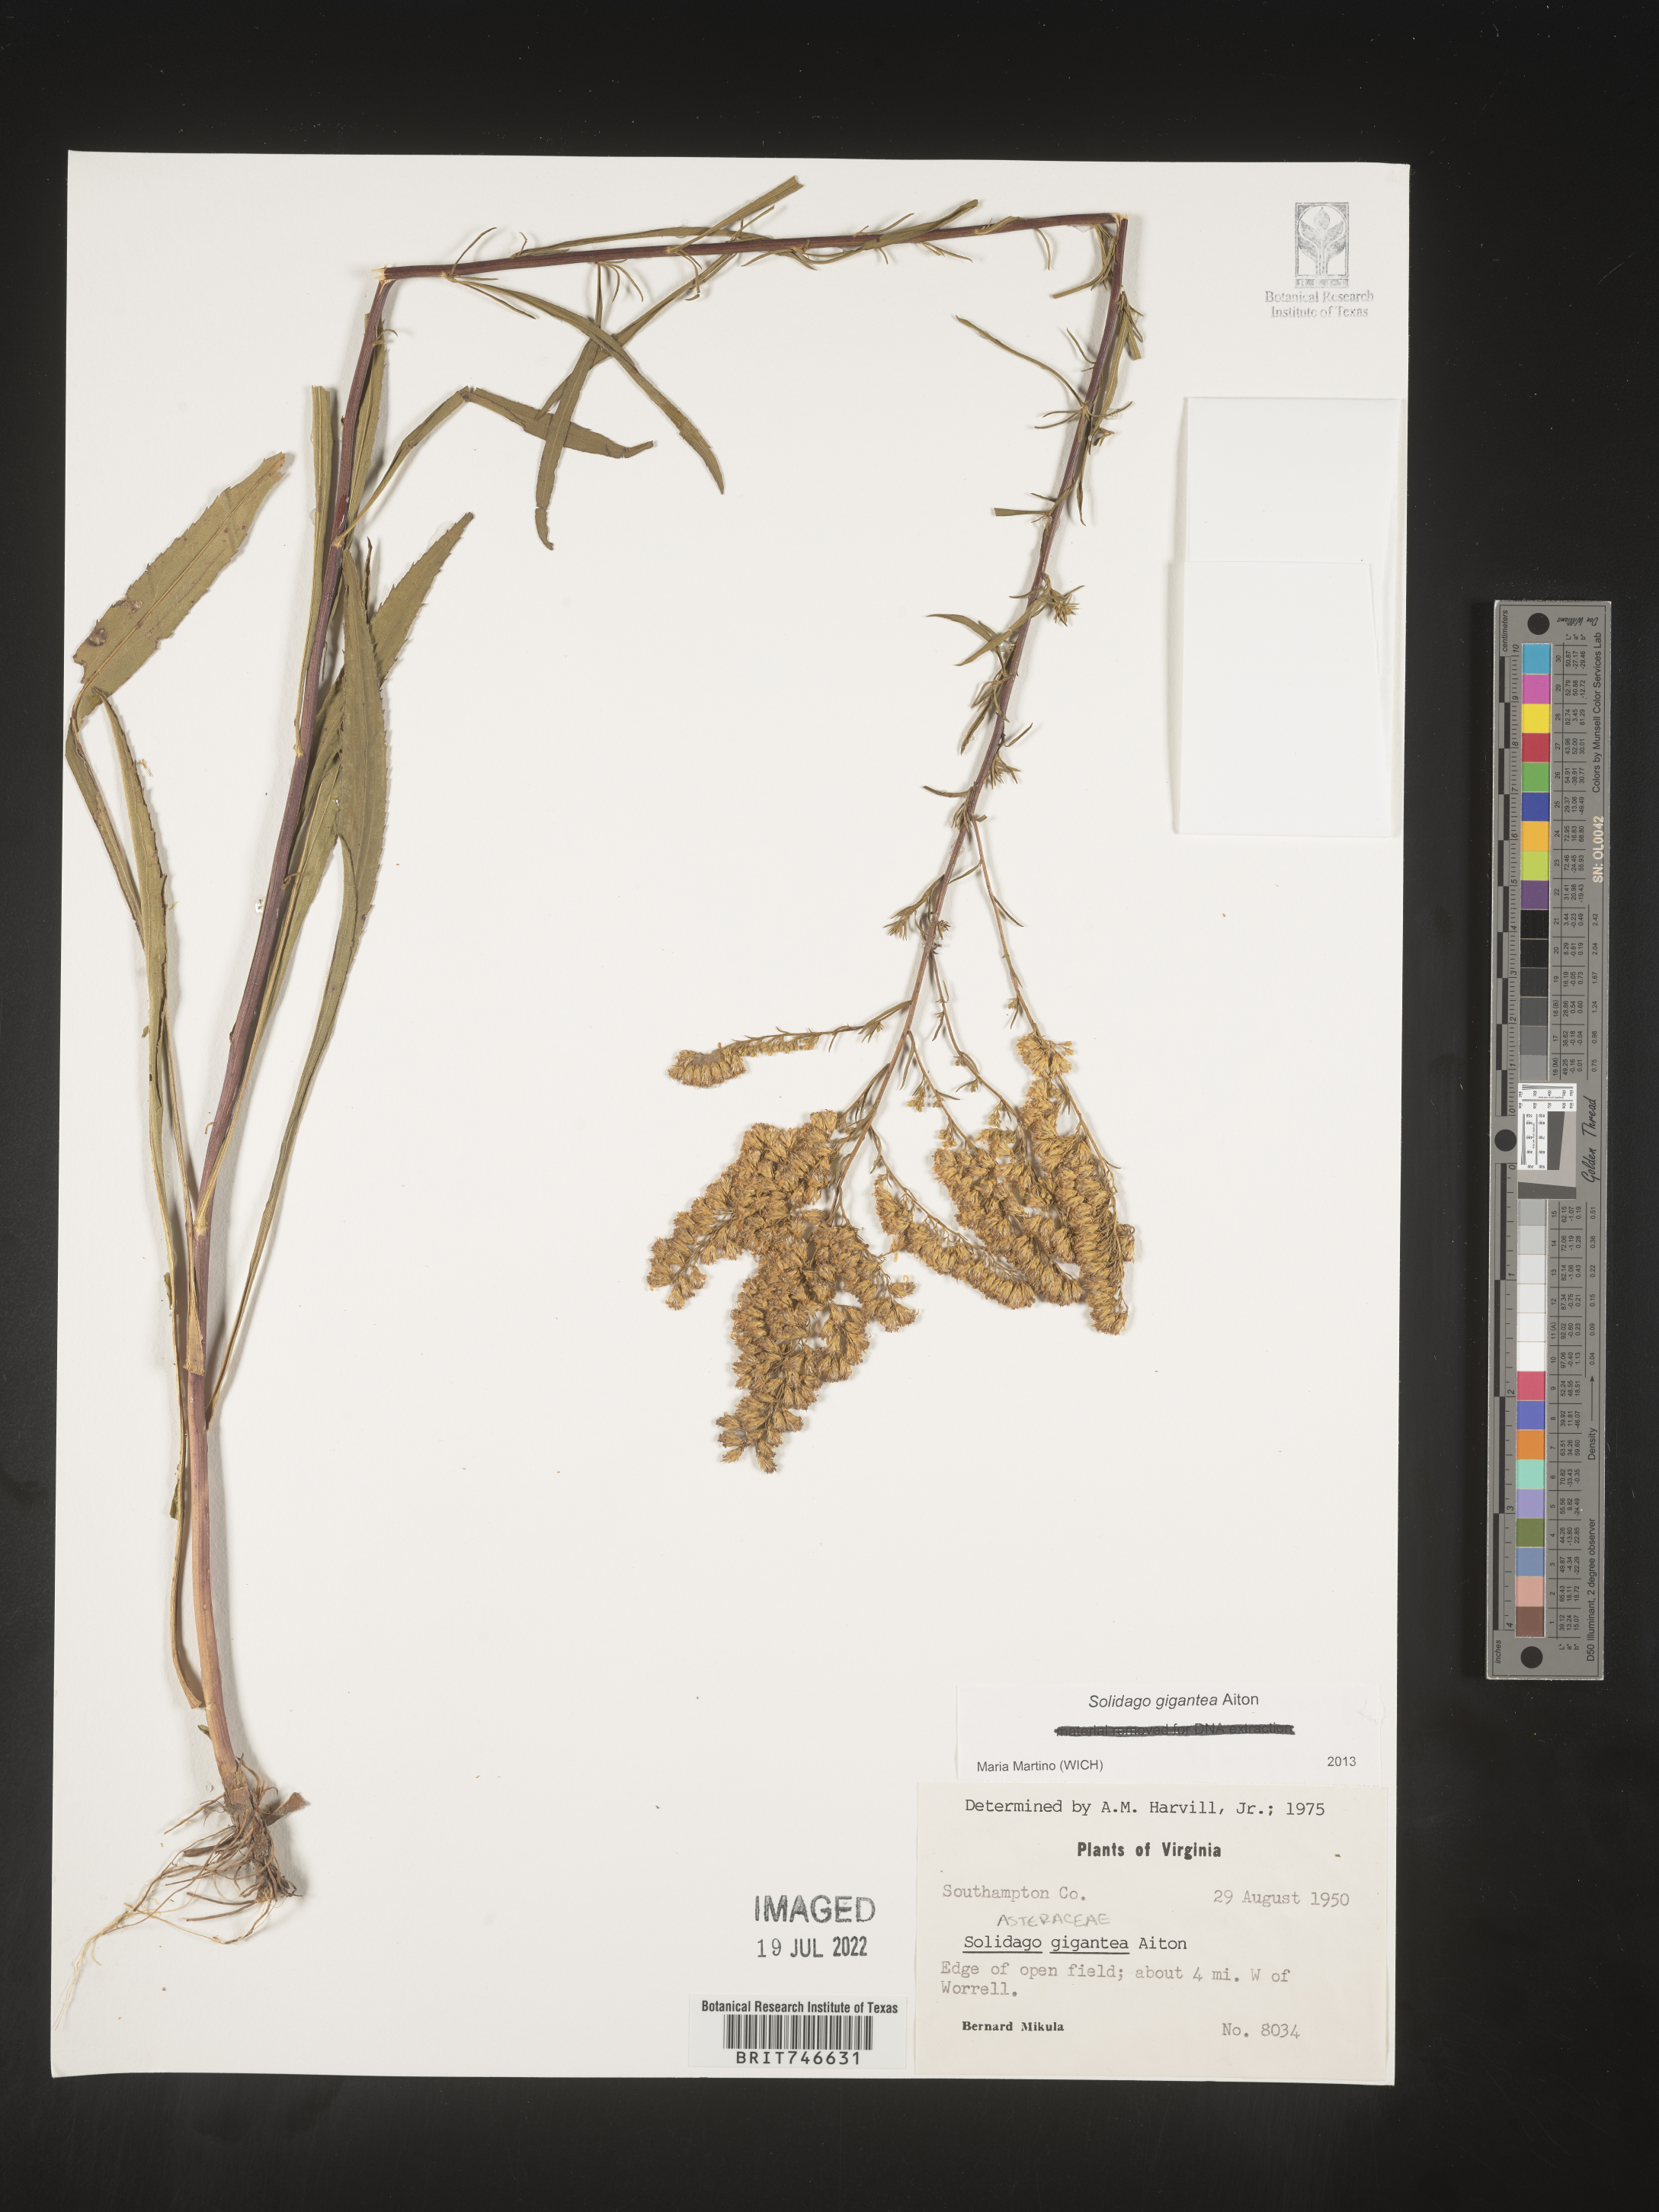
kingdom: Plantae
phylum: Tracheophyta
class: Magnoliopsida
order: Asterales
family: Asteraceae
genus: Solidago
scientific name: Solidago gigantea
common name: Giant goldenrod
